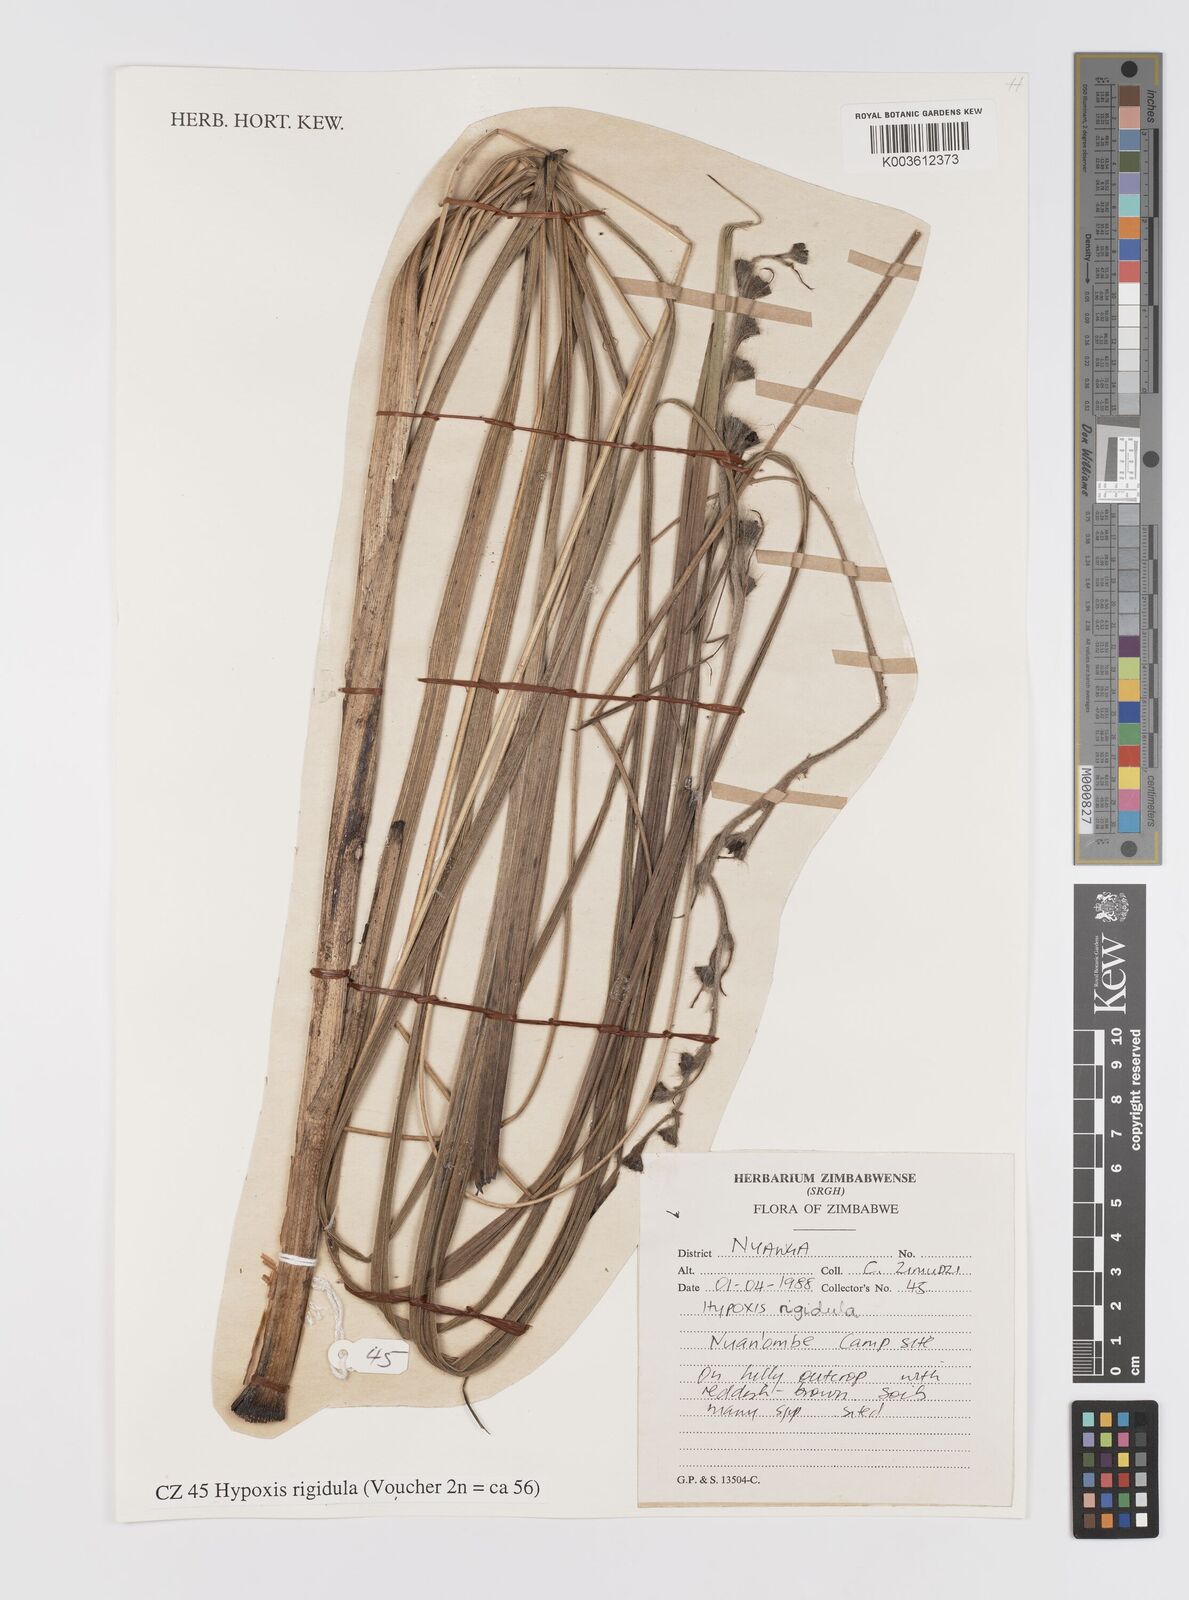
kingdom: Plantae
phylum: Tracheophyta
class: Liliopsida
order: Asparagales
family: Hypoxidaceae
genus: Hypoxis
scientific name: Hypoxis rigidula
